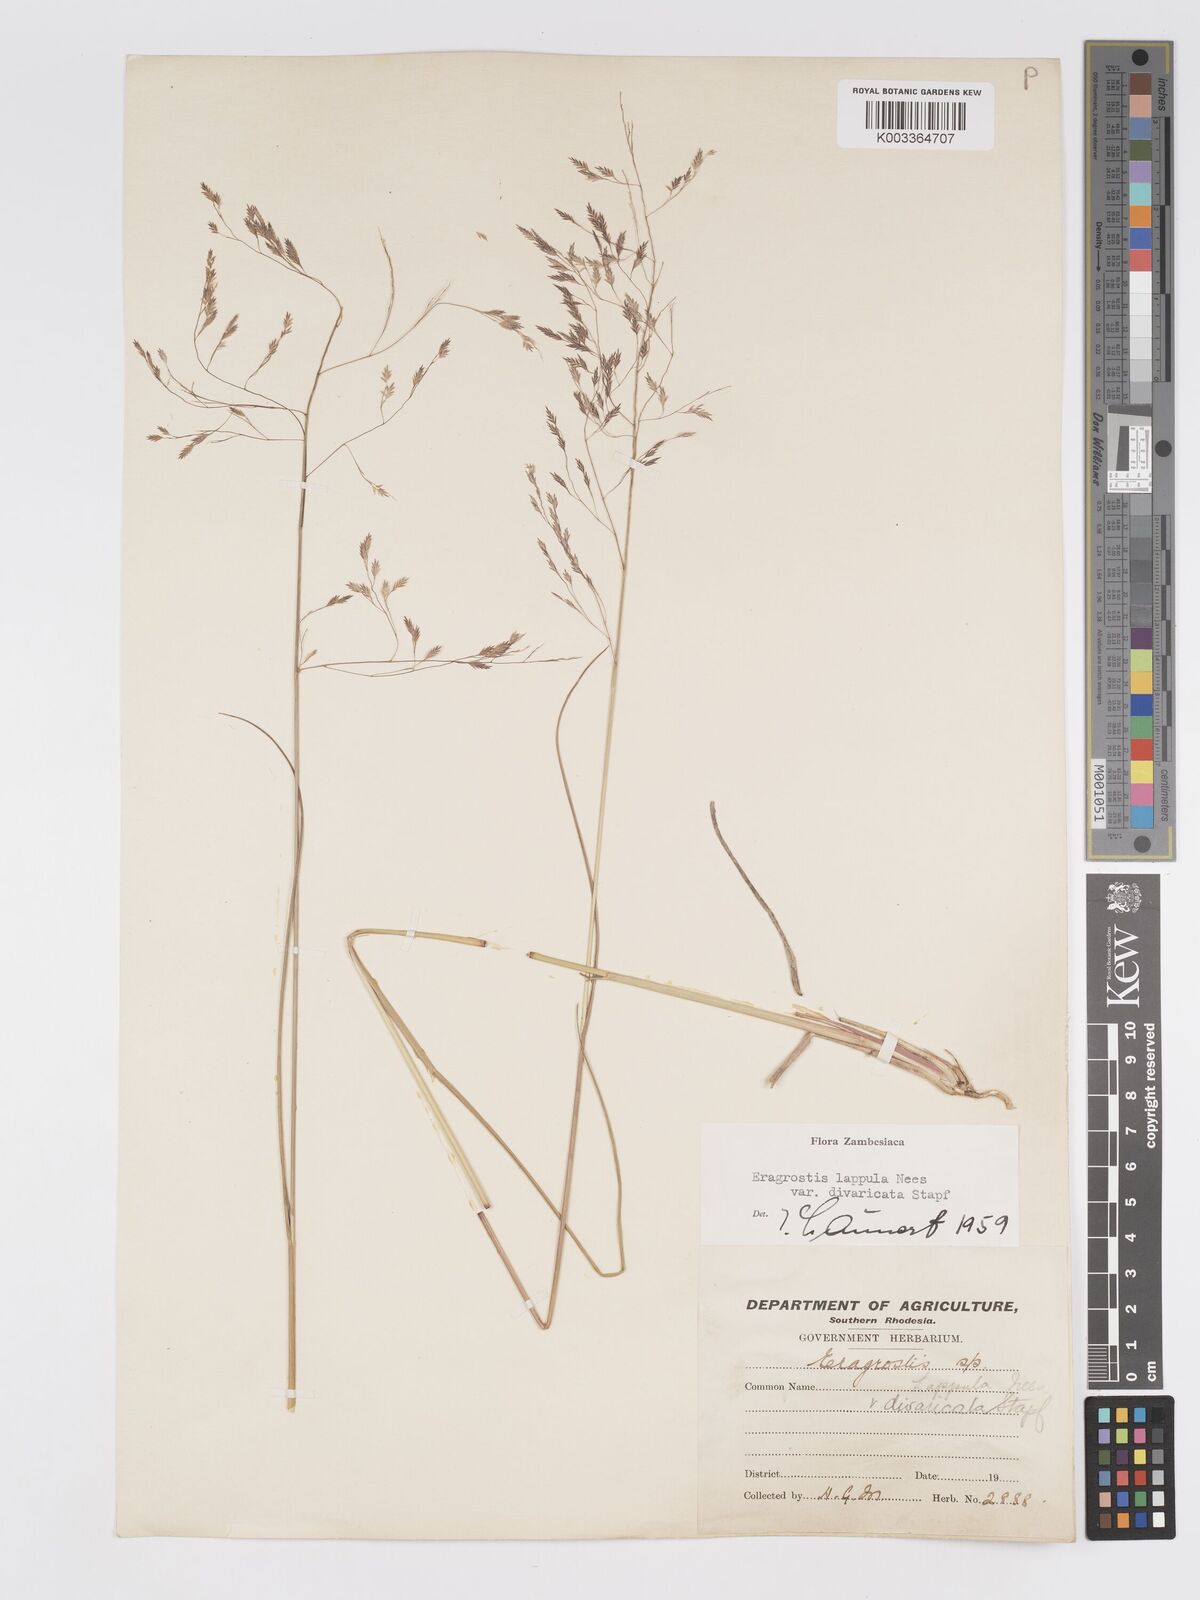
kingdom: Plantae
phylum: Tracheophyta
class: Liliopsida
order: Poales
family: Poaceae
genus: Eragrostis
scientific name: Eragrostis lappula
